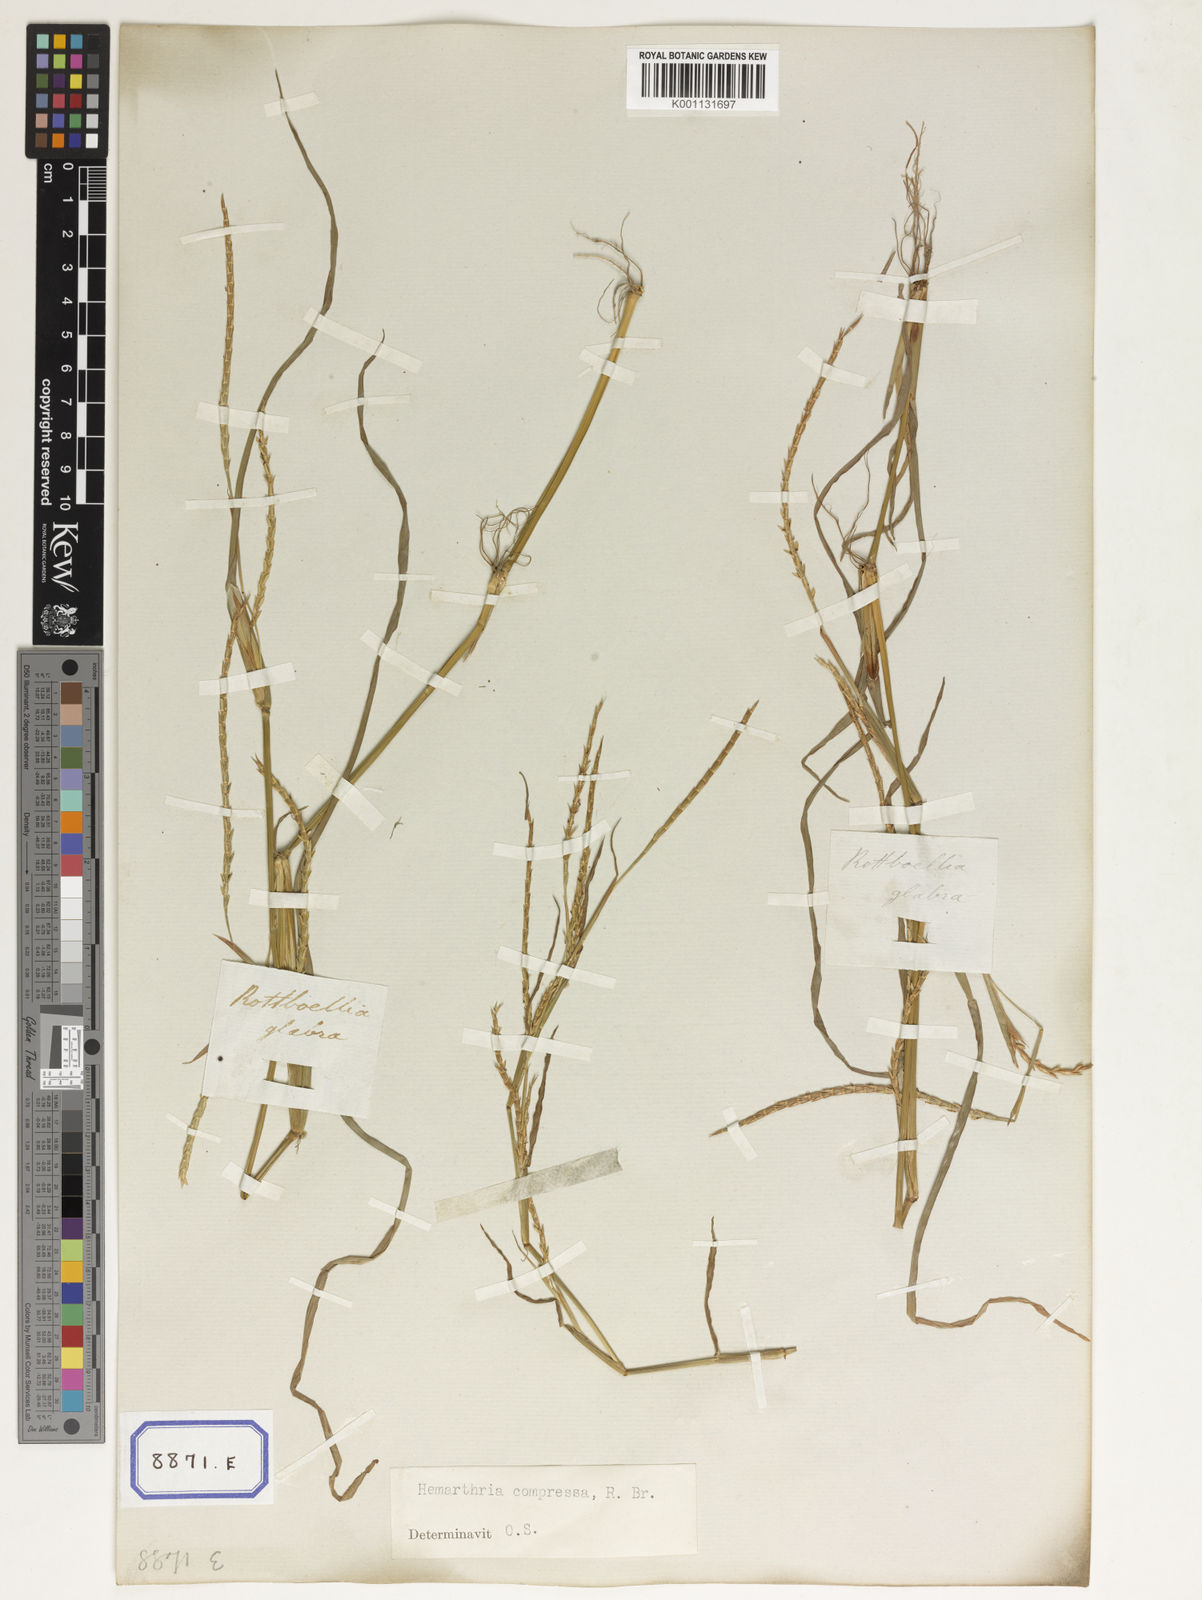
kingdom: Plantae
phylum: Tracheophyta
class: Liliopsida
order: Poales
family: Poaceae
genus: Hemarthria
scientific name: Hemarthria
